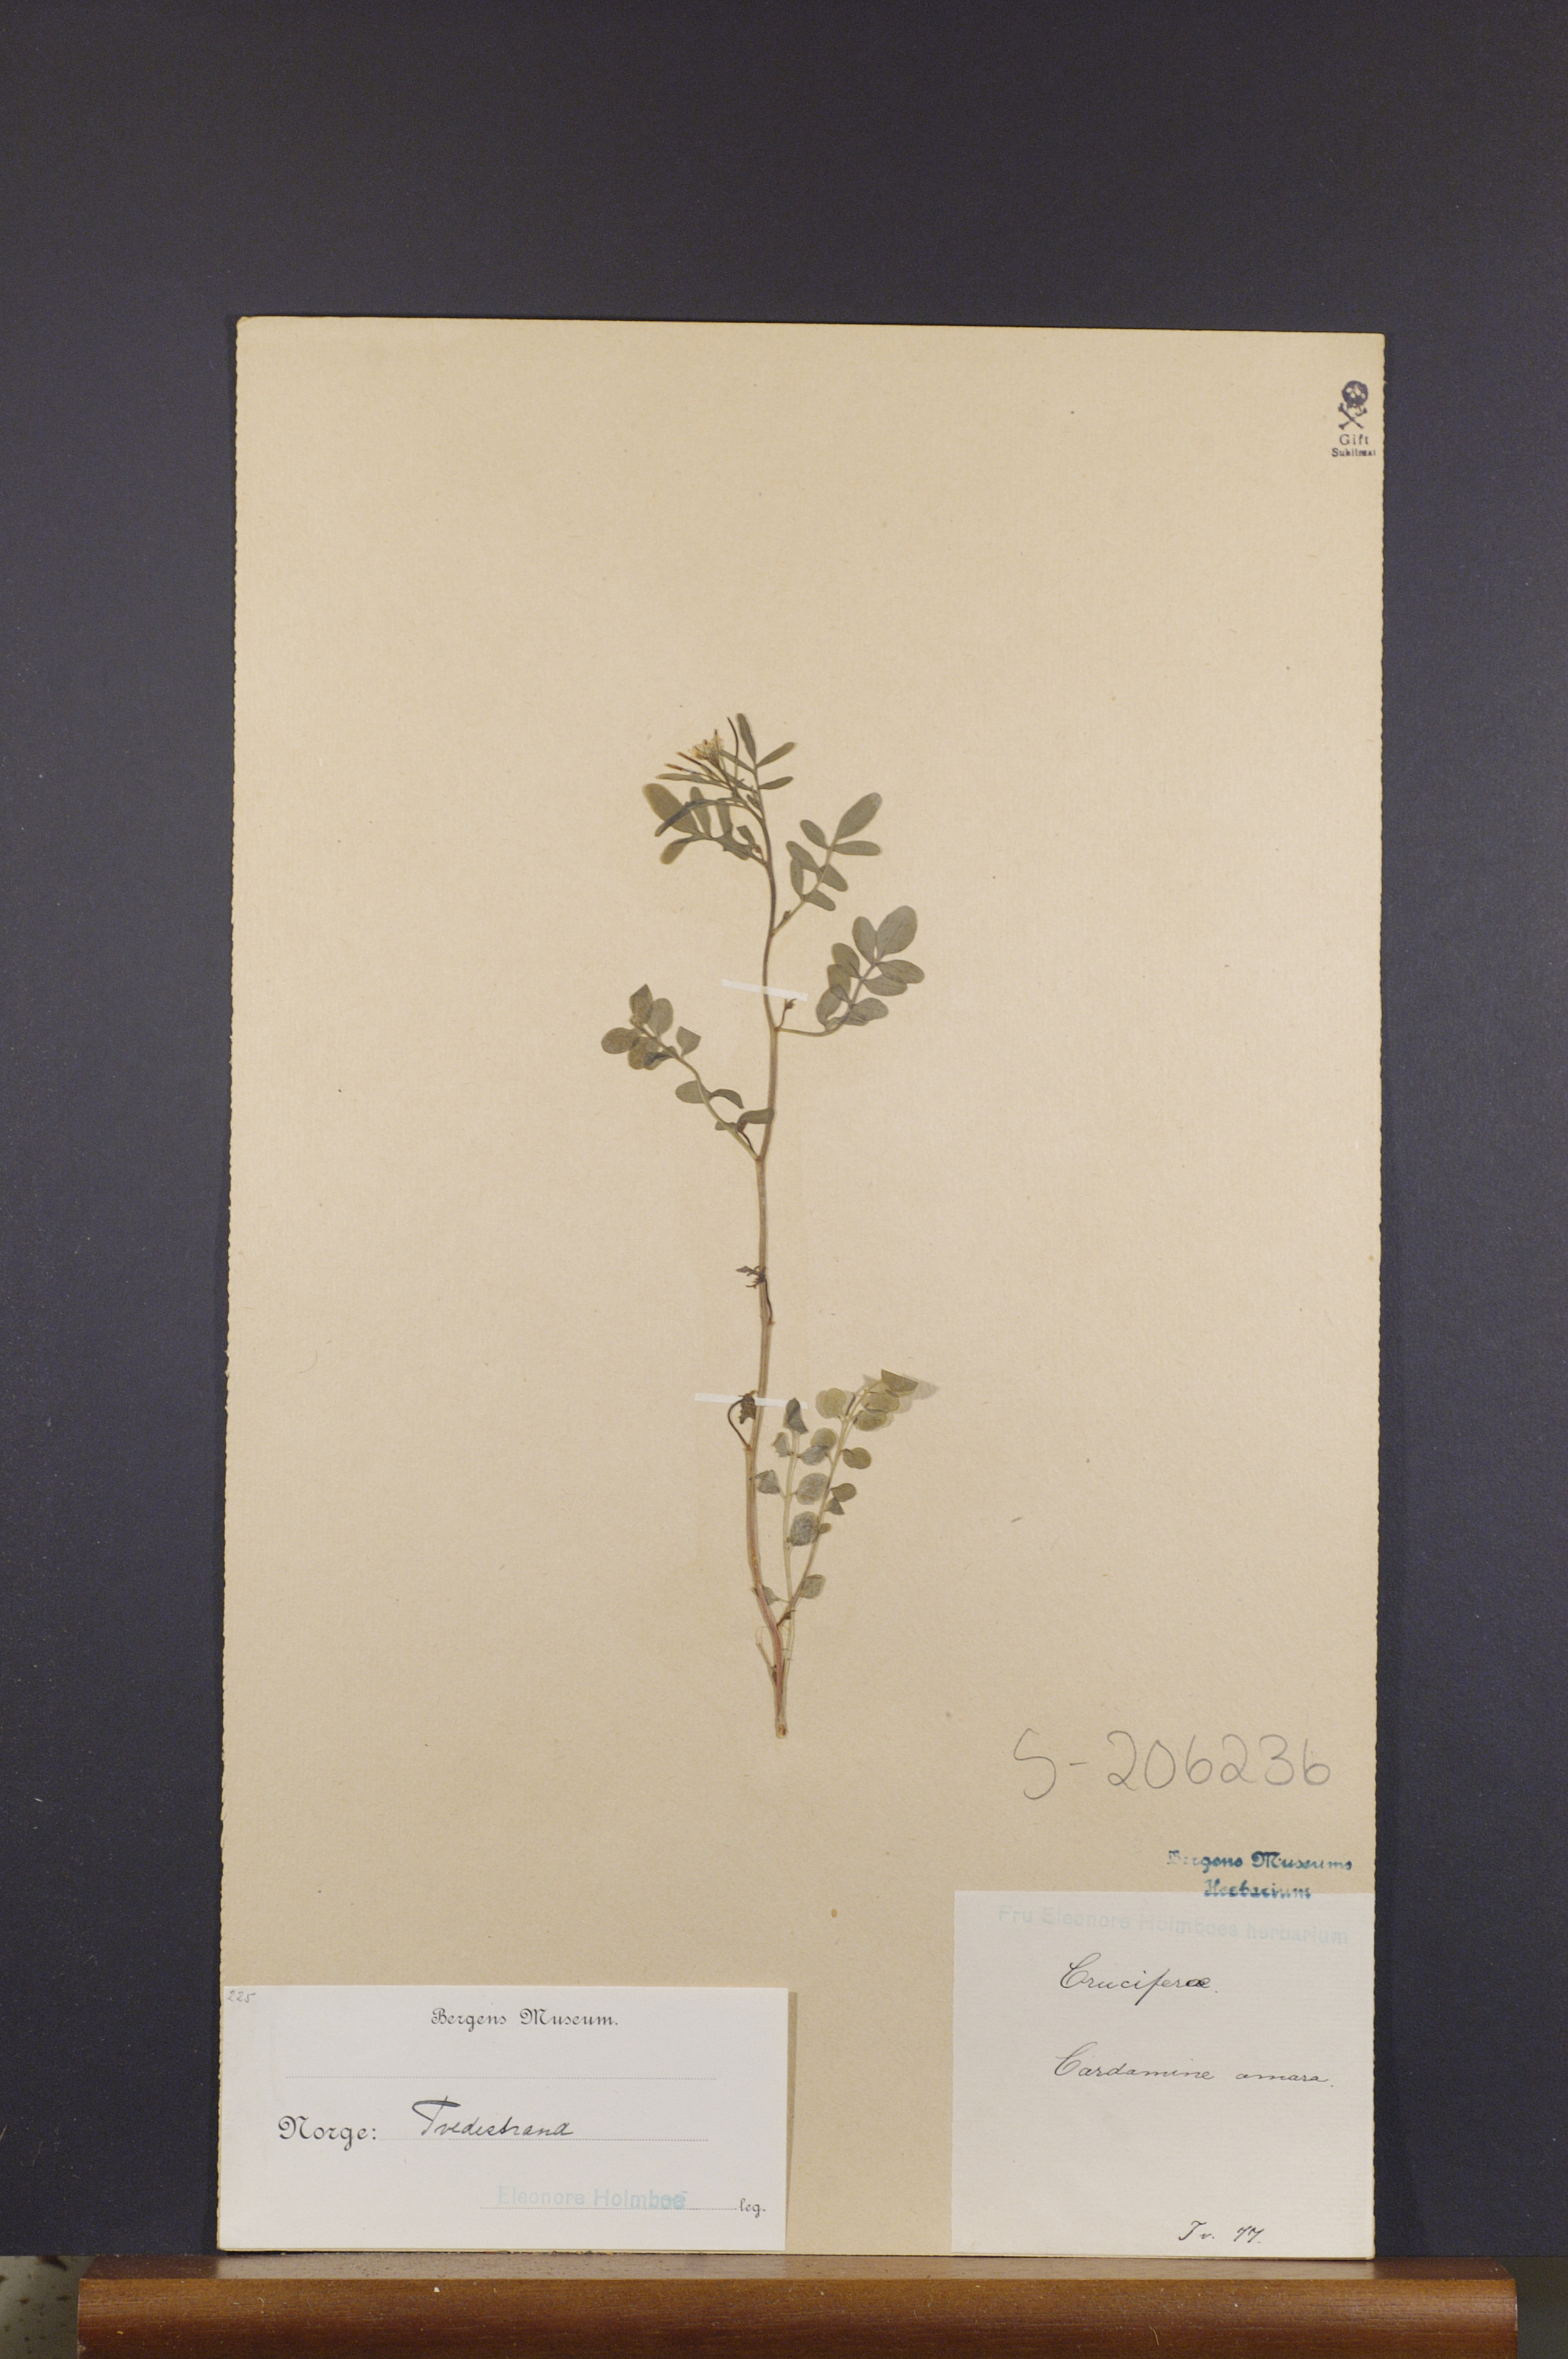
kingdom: Plantae
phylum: Tracheophyta
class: Magnoliopsida
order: Brassicales
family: Brassicaceae
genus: Cardamine
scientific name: Cardamine amara
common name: Large bitter-cress
